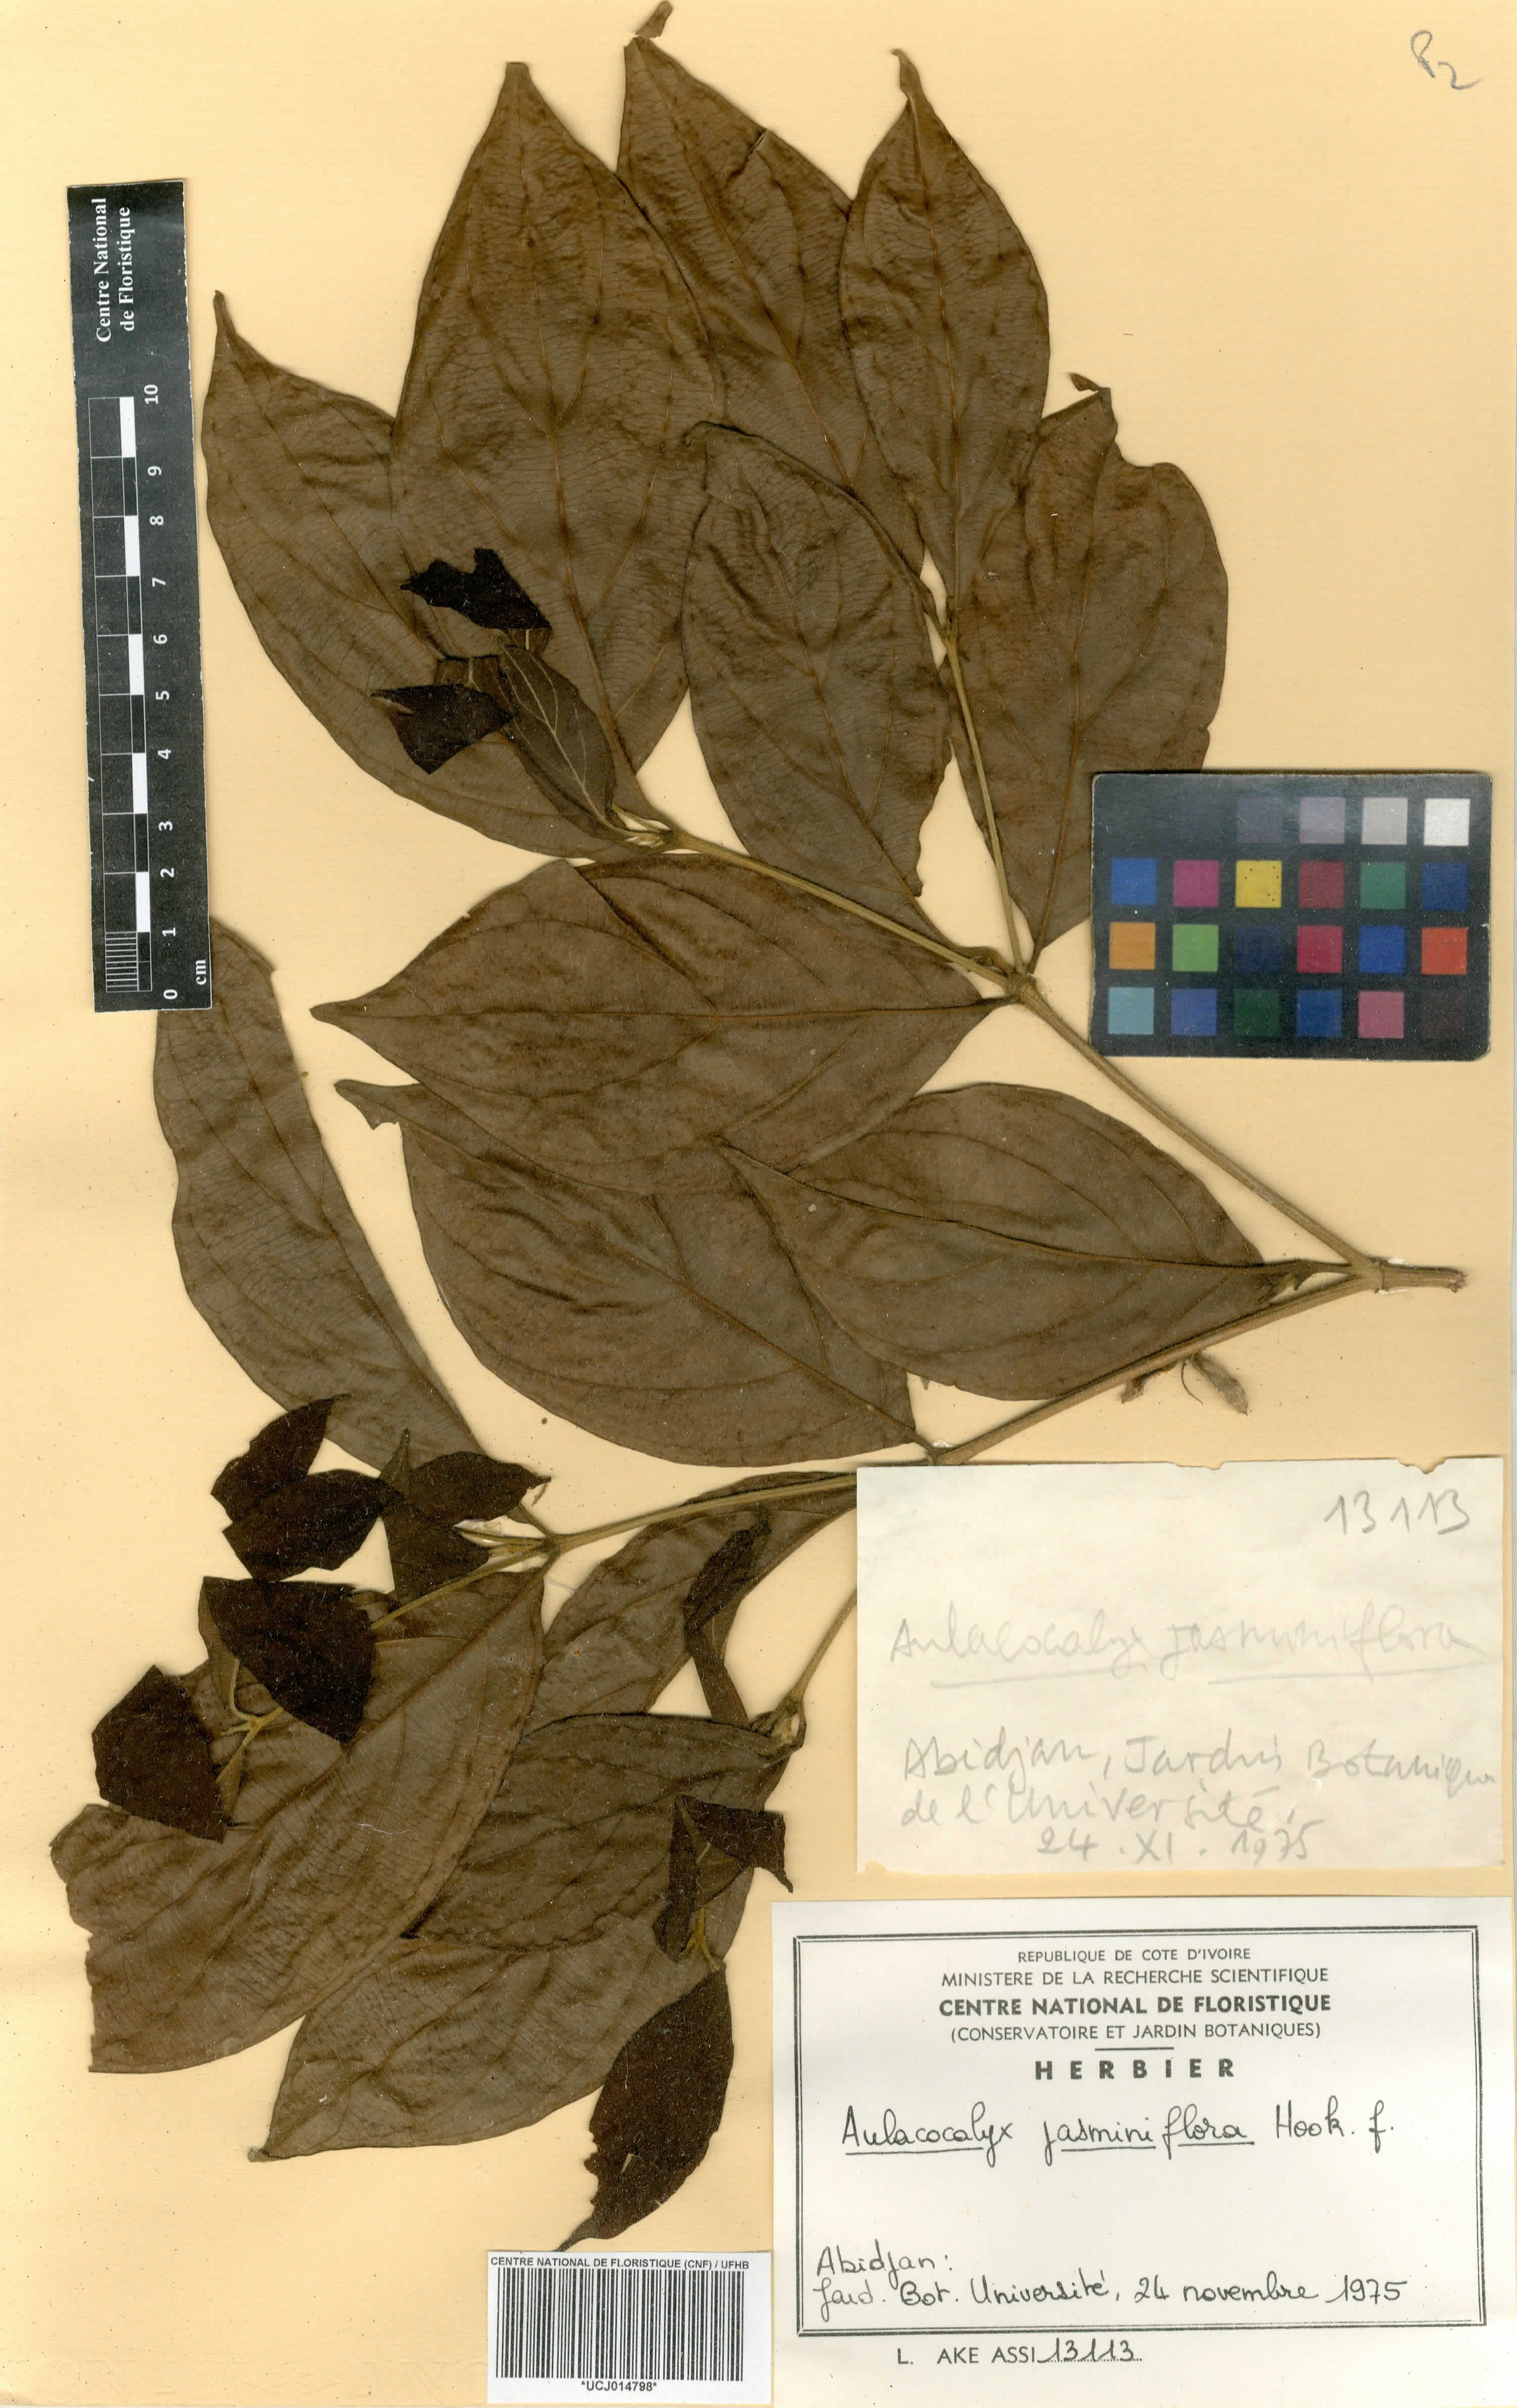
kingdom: Plantae
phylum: Tracheophyta
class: Magnoliopsida
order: Gentianales
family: Rubiaceae
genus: Aulacocalyx
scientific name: Aulacocalyx jasminiflora
